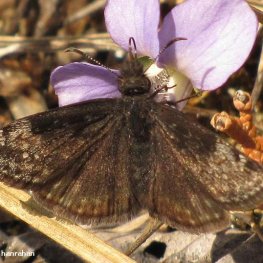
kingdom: Animalia
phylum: Arthropoda
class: Insecta
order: Lepidoptera
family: Hesperiidae
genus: Gesta
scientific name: Gesta
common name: Juvenal's Duskywing
